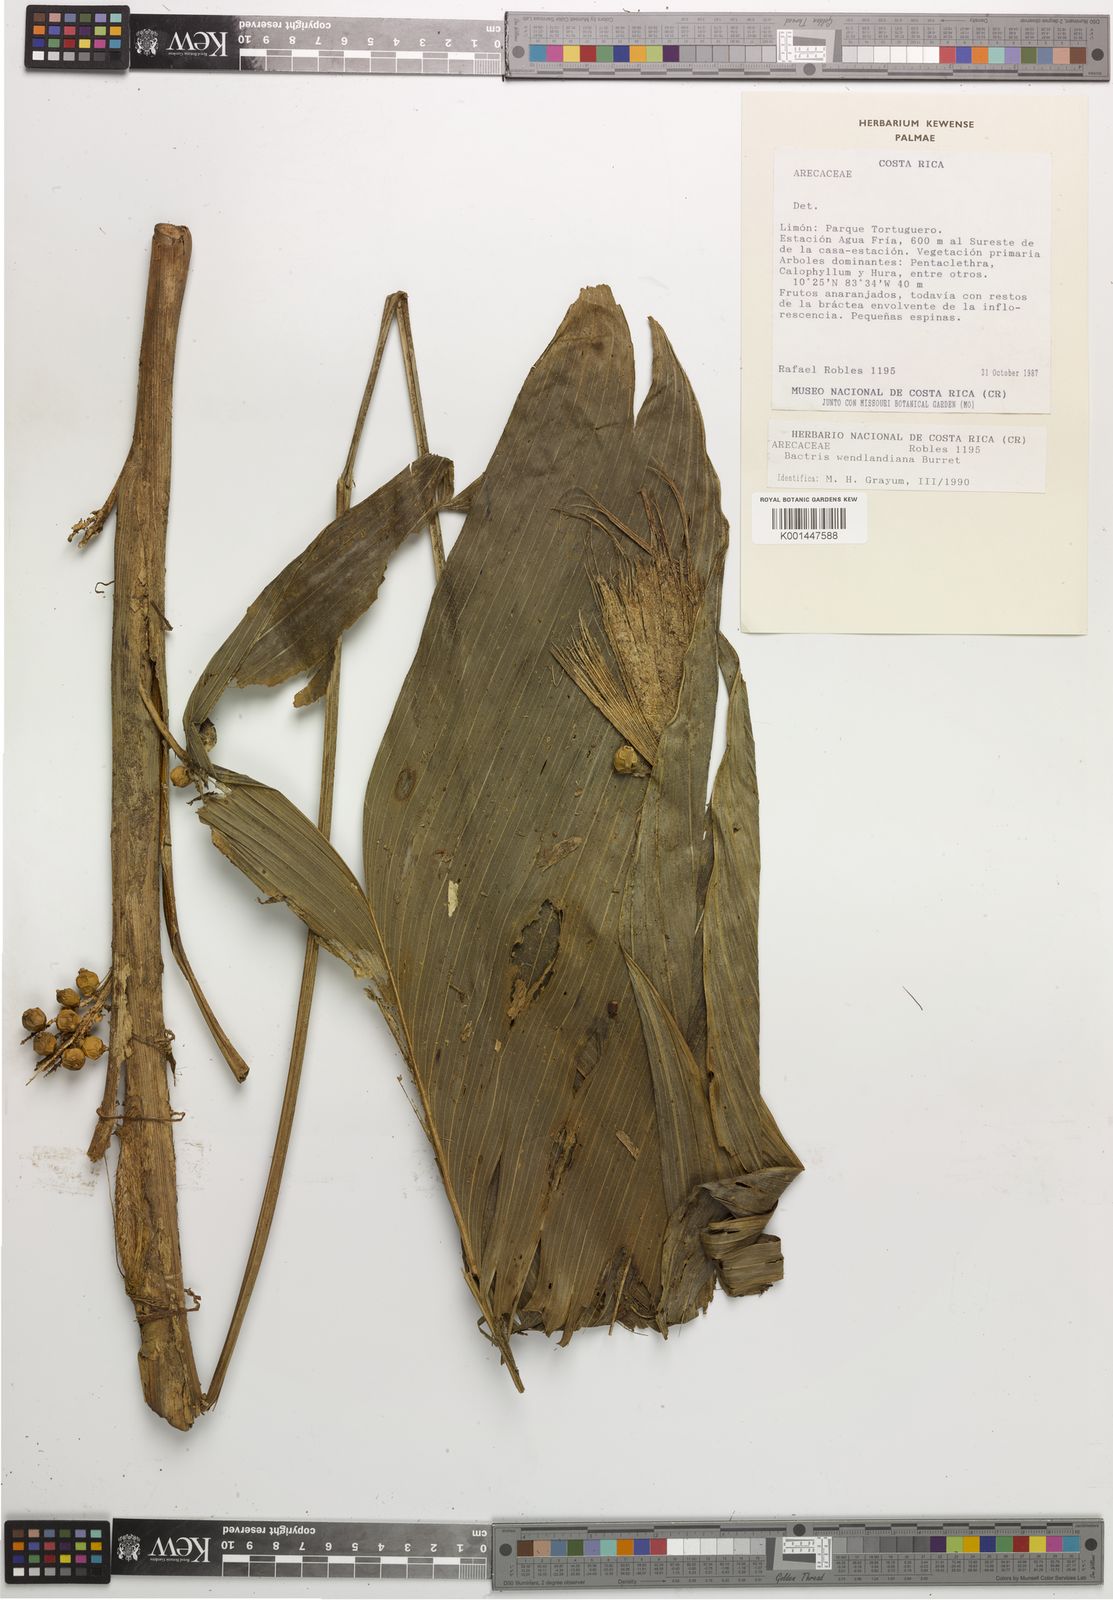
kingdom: Plantae
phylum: Tracheophyta
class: Liliopsida
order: Arecales
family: Arecaceae
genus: Bactris
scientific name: Bactris obovata
